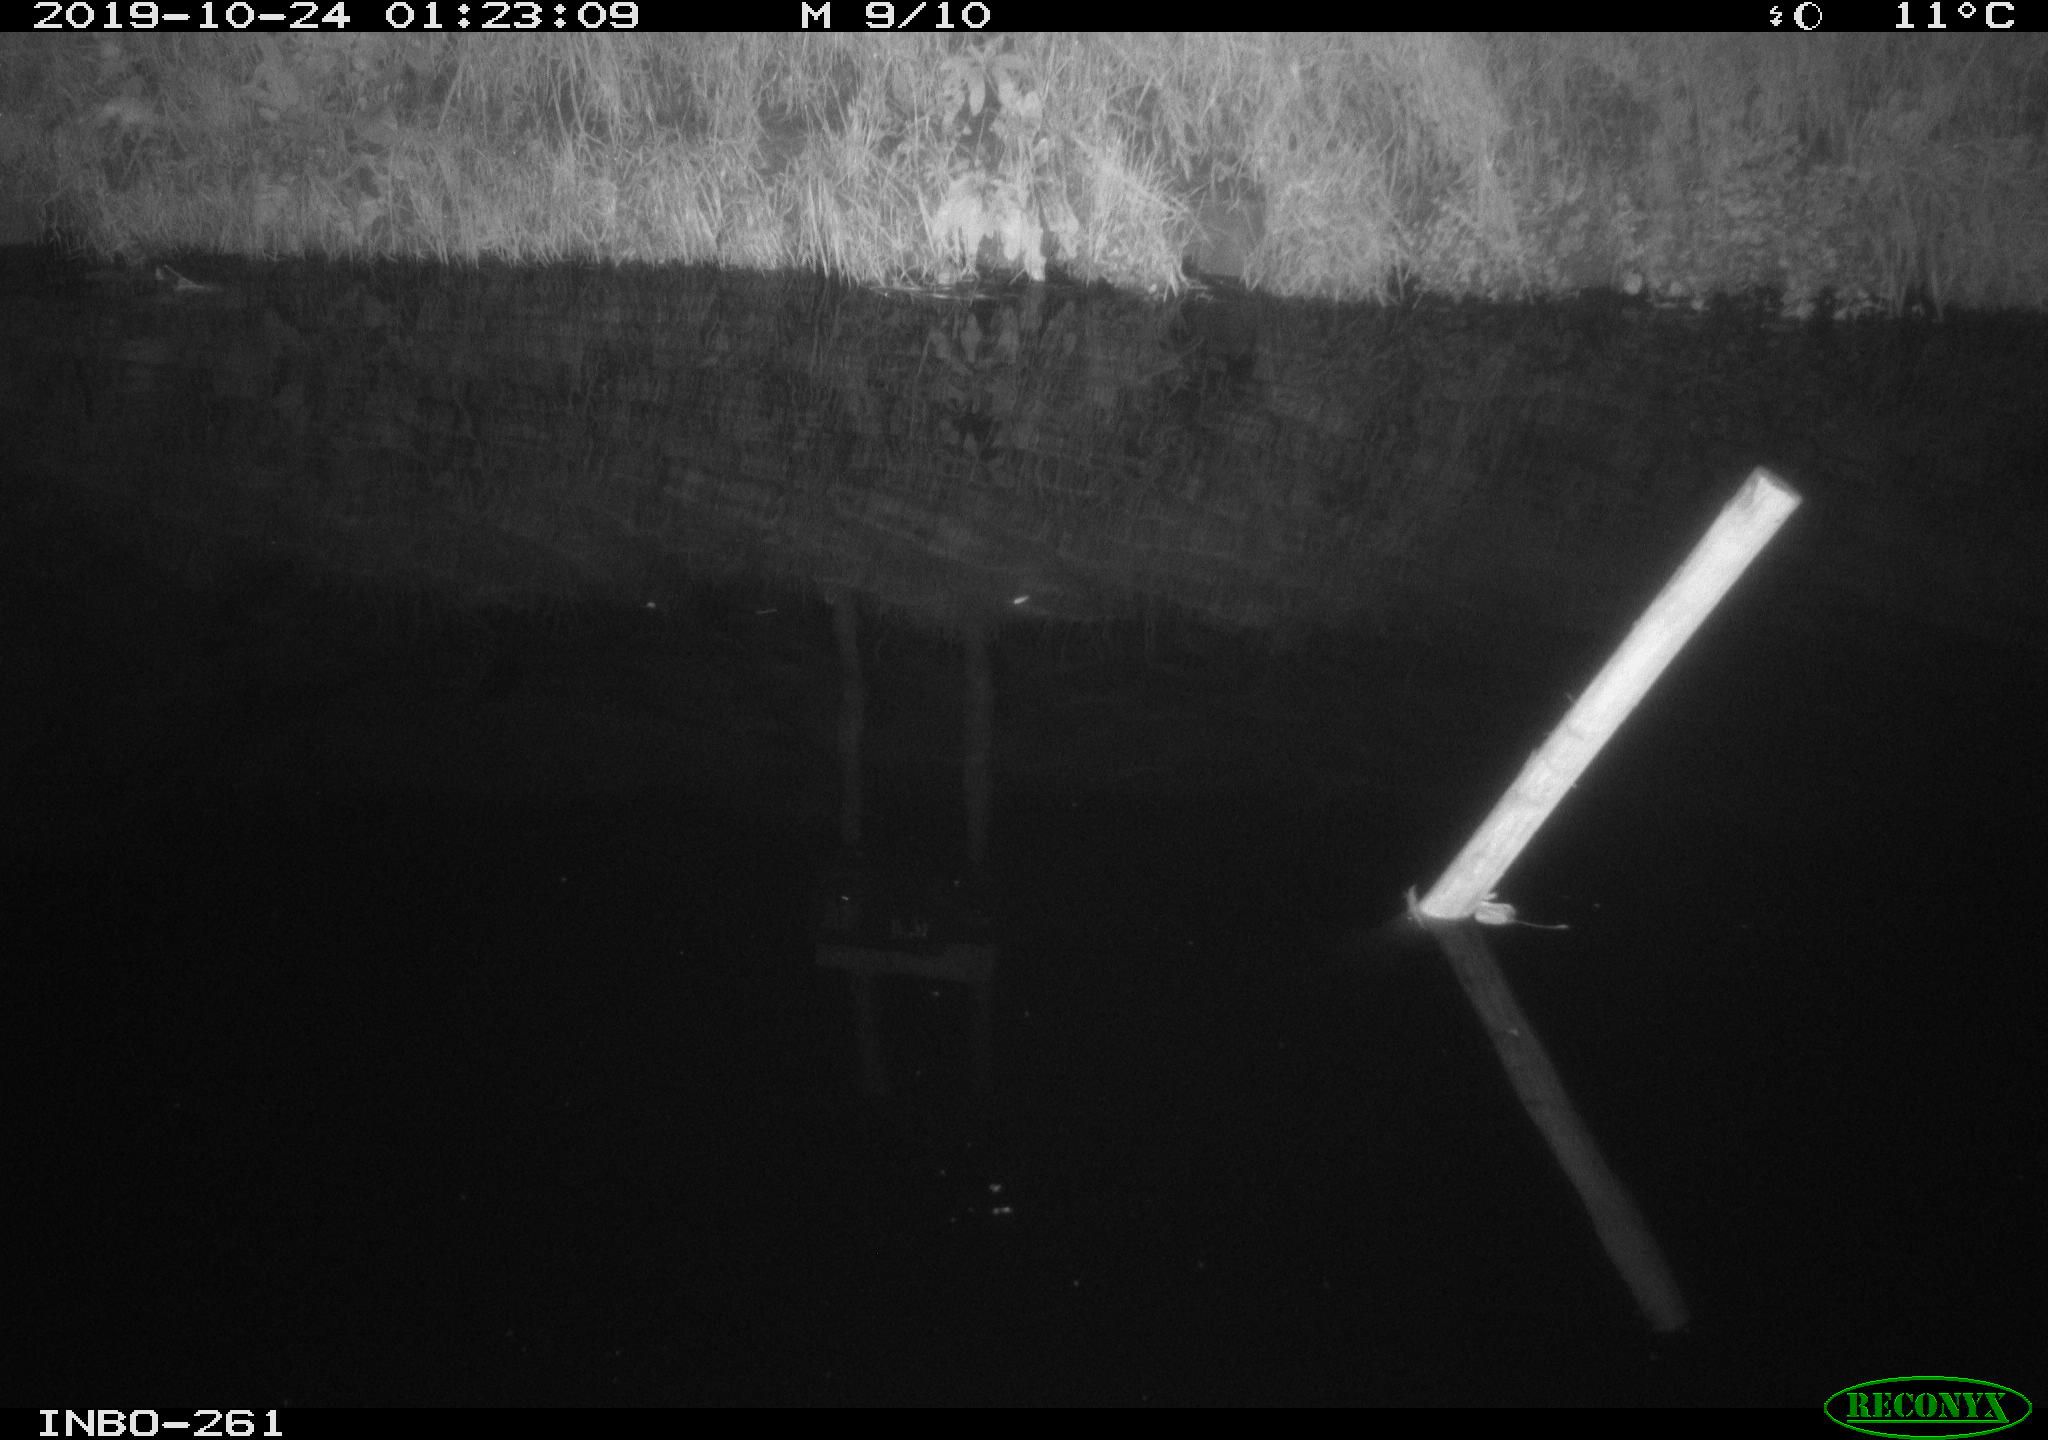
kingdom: Animalia
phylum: Chordata
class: Aves
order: Anseriformes
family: Anatidae
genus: Anas
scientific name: Anas platyrhynchos
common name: Mallard
